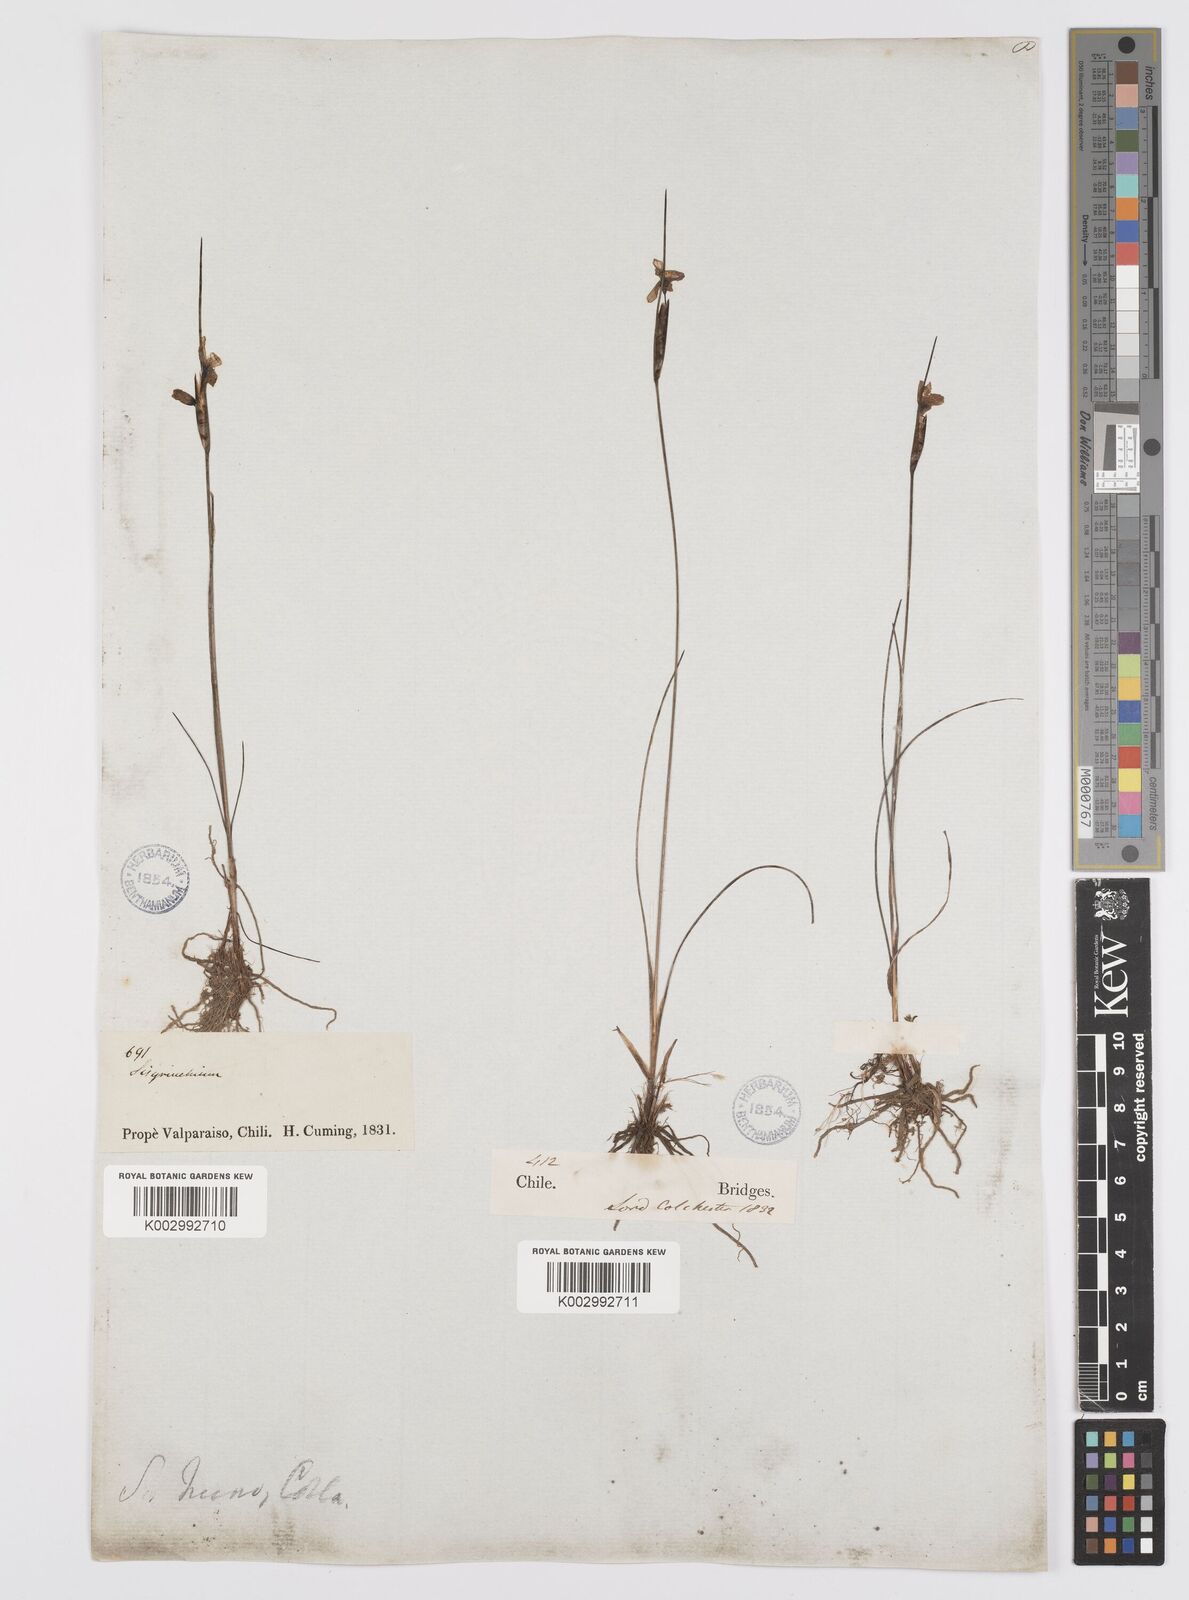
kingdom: Plantae
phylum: Tracheophyta
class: Liliopsida
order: Asparagales
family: Iridaceae
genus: Olsynium
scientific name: Olsynium scirpoideum
